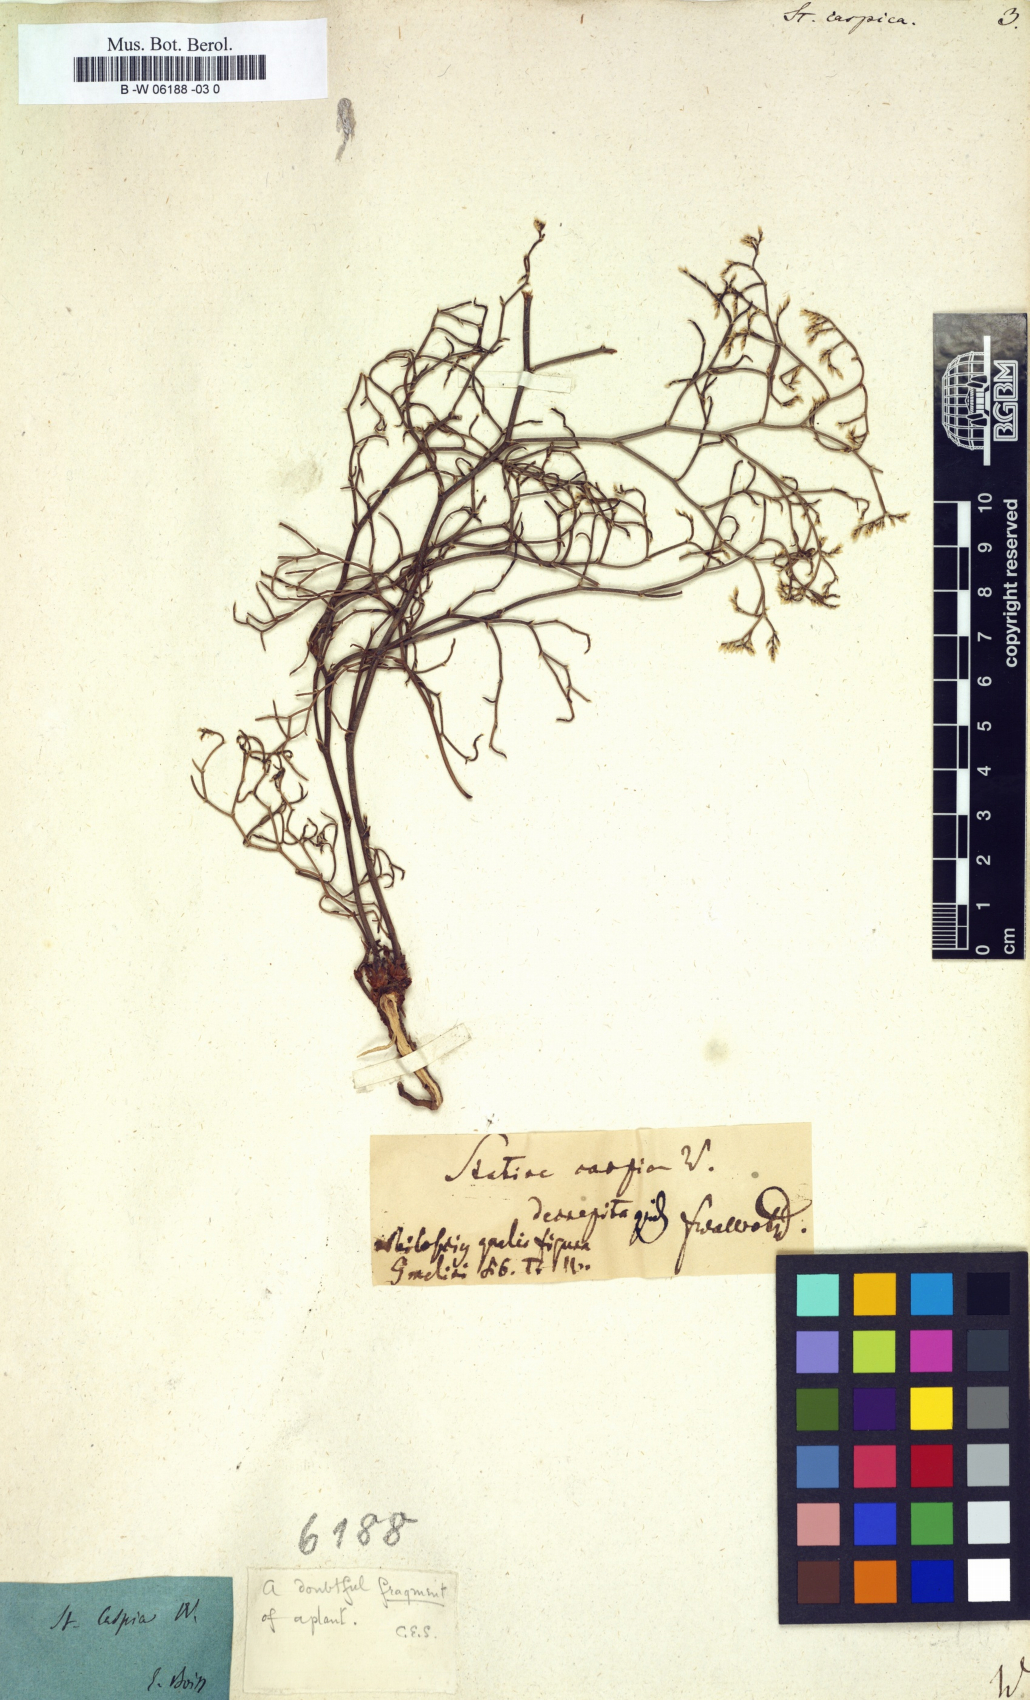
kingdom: Plantae
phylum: Tracheophyta
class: Magnoliopsida
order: Caryophyllales
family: Plumbaginaceae
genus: Limonium
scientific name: Limonium bellidifolium
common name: Matted sea-lavender
